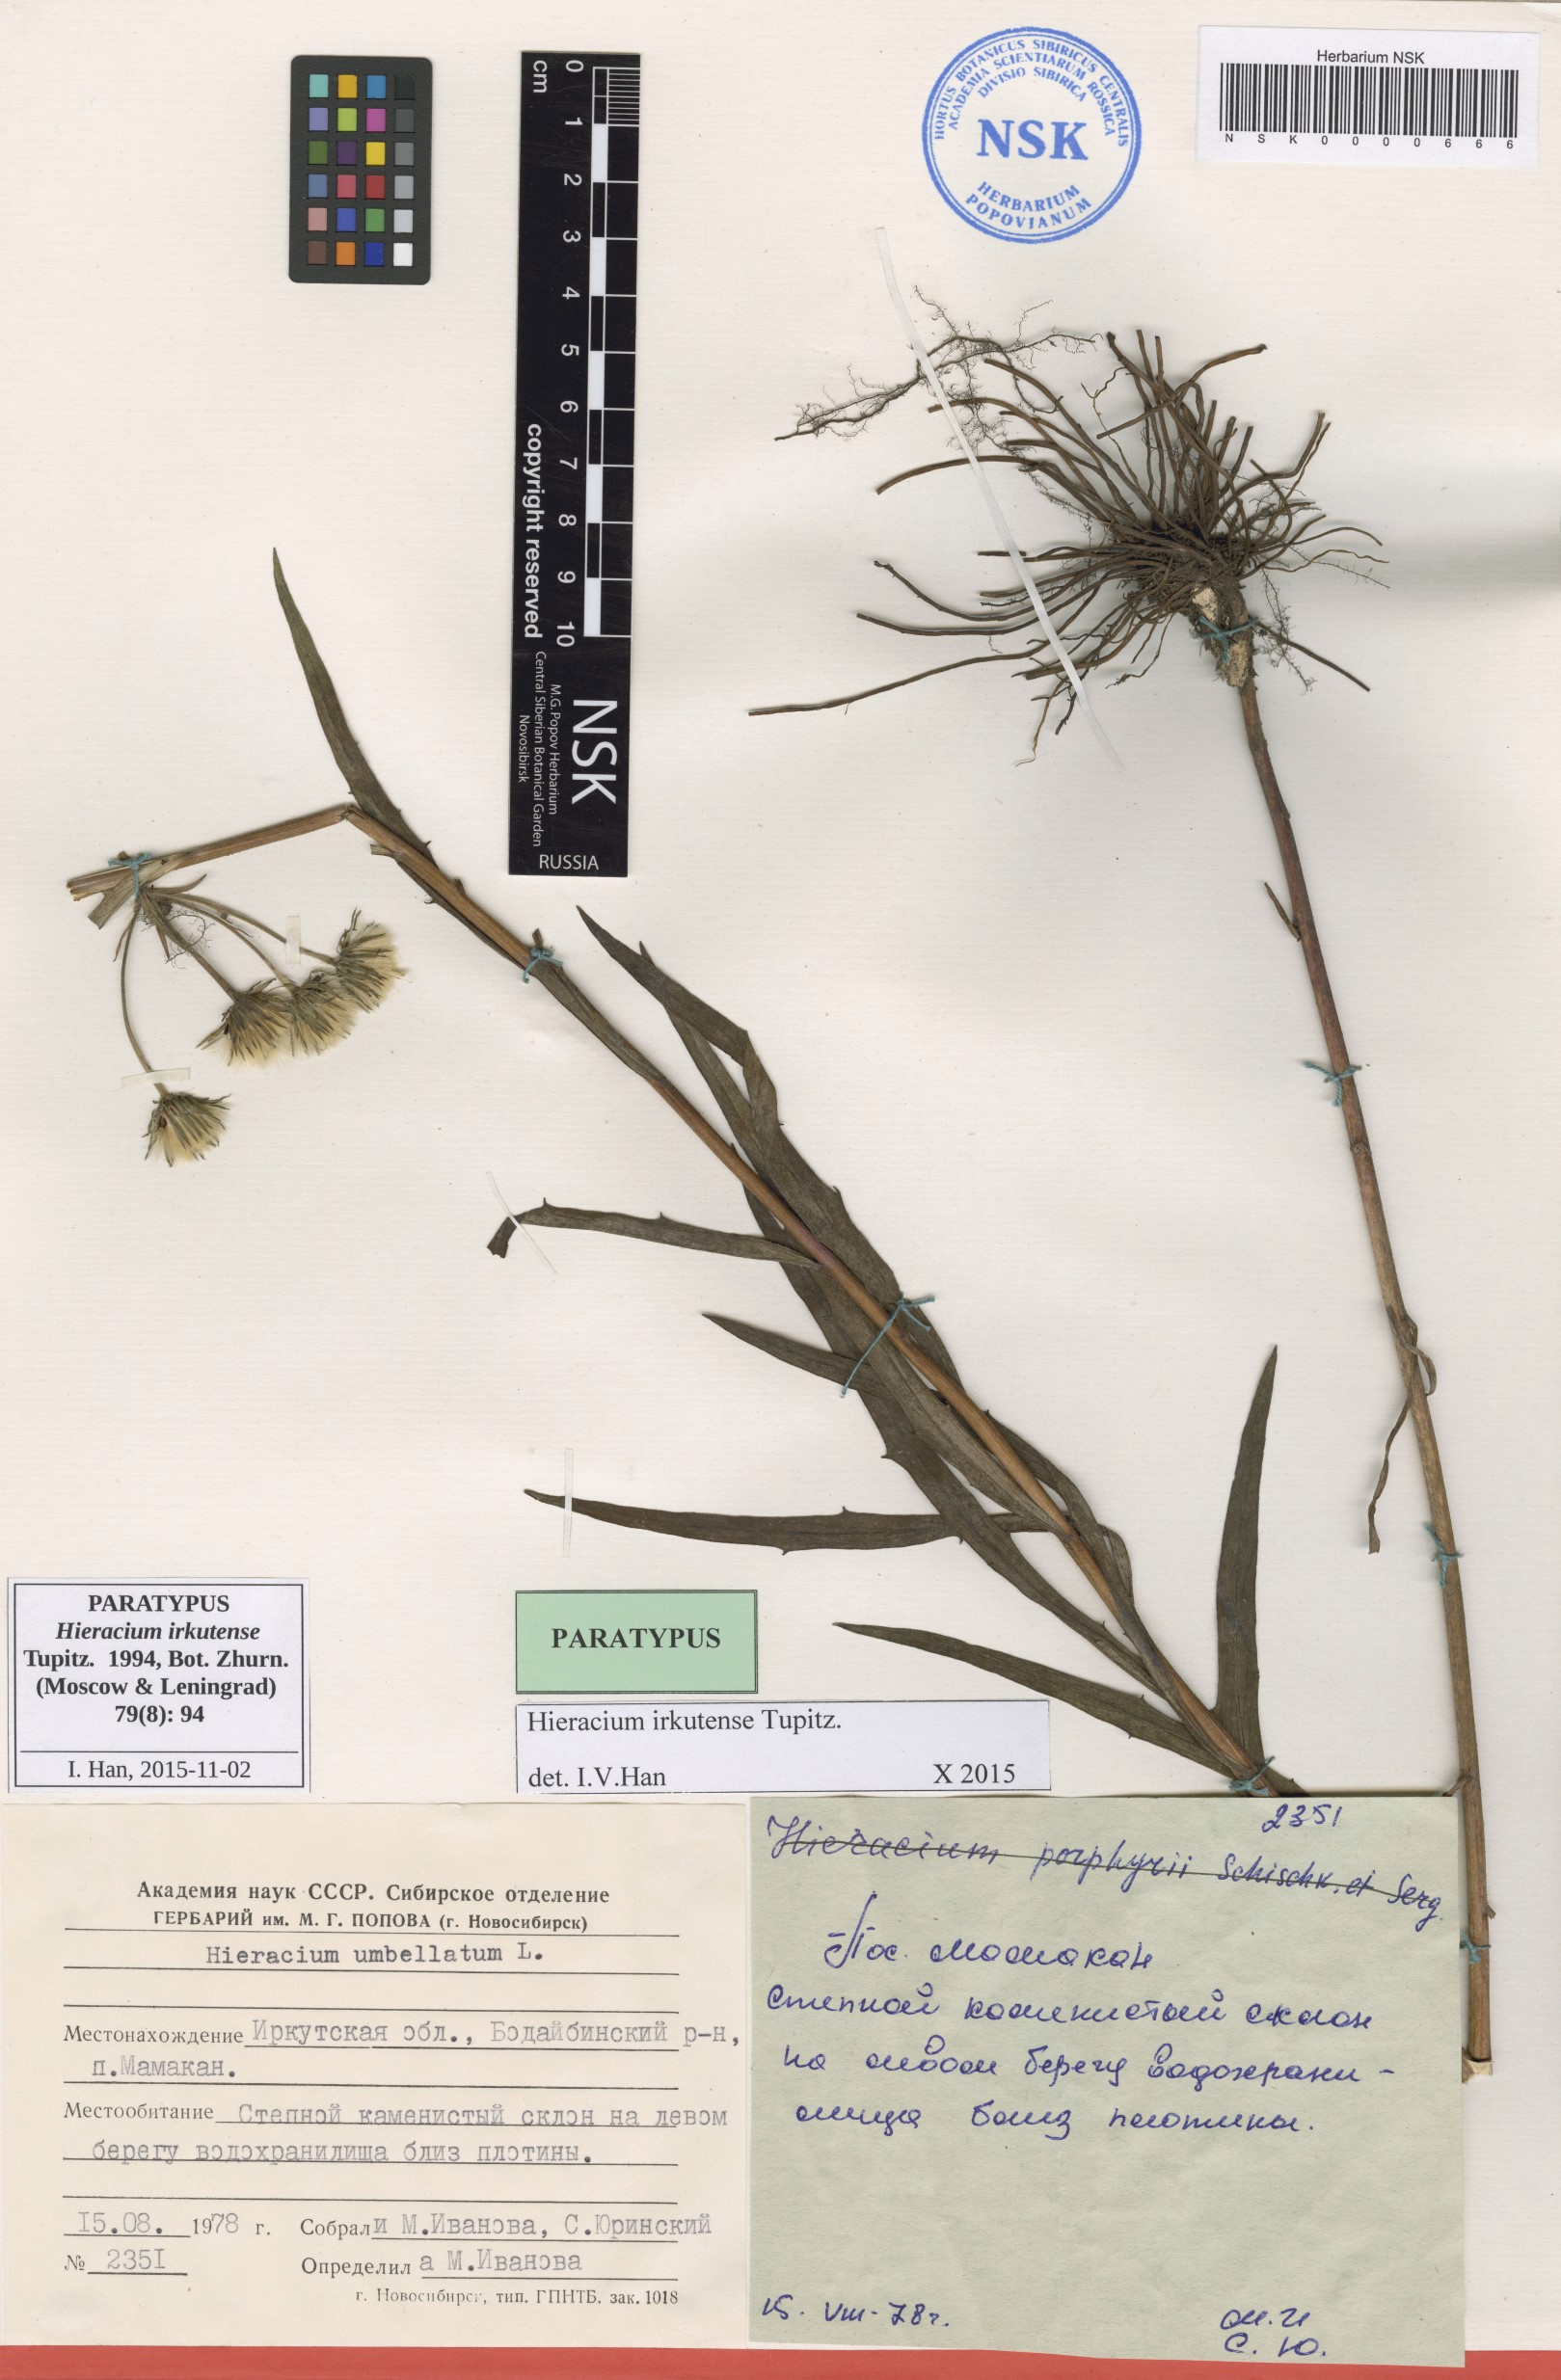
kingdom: Plantae
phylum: Tracheophyta
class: Magnoliopsida
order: Asterales
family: Asteraceae
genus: Hieracium
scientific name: Hieracium irkutense
